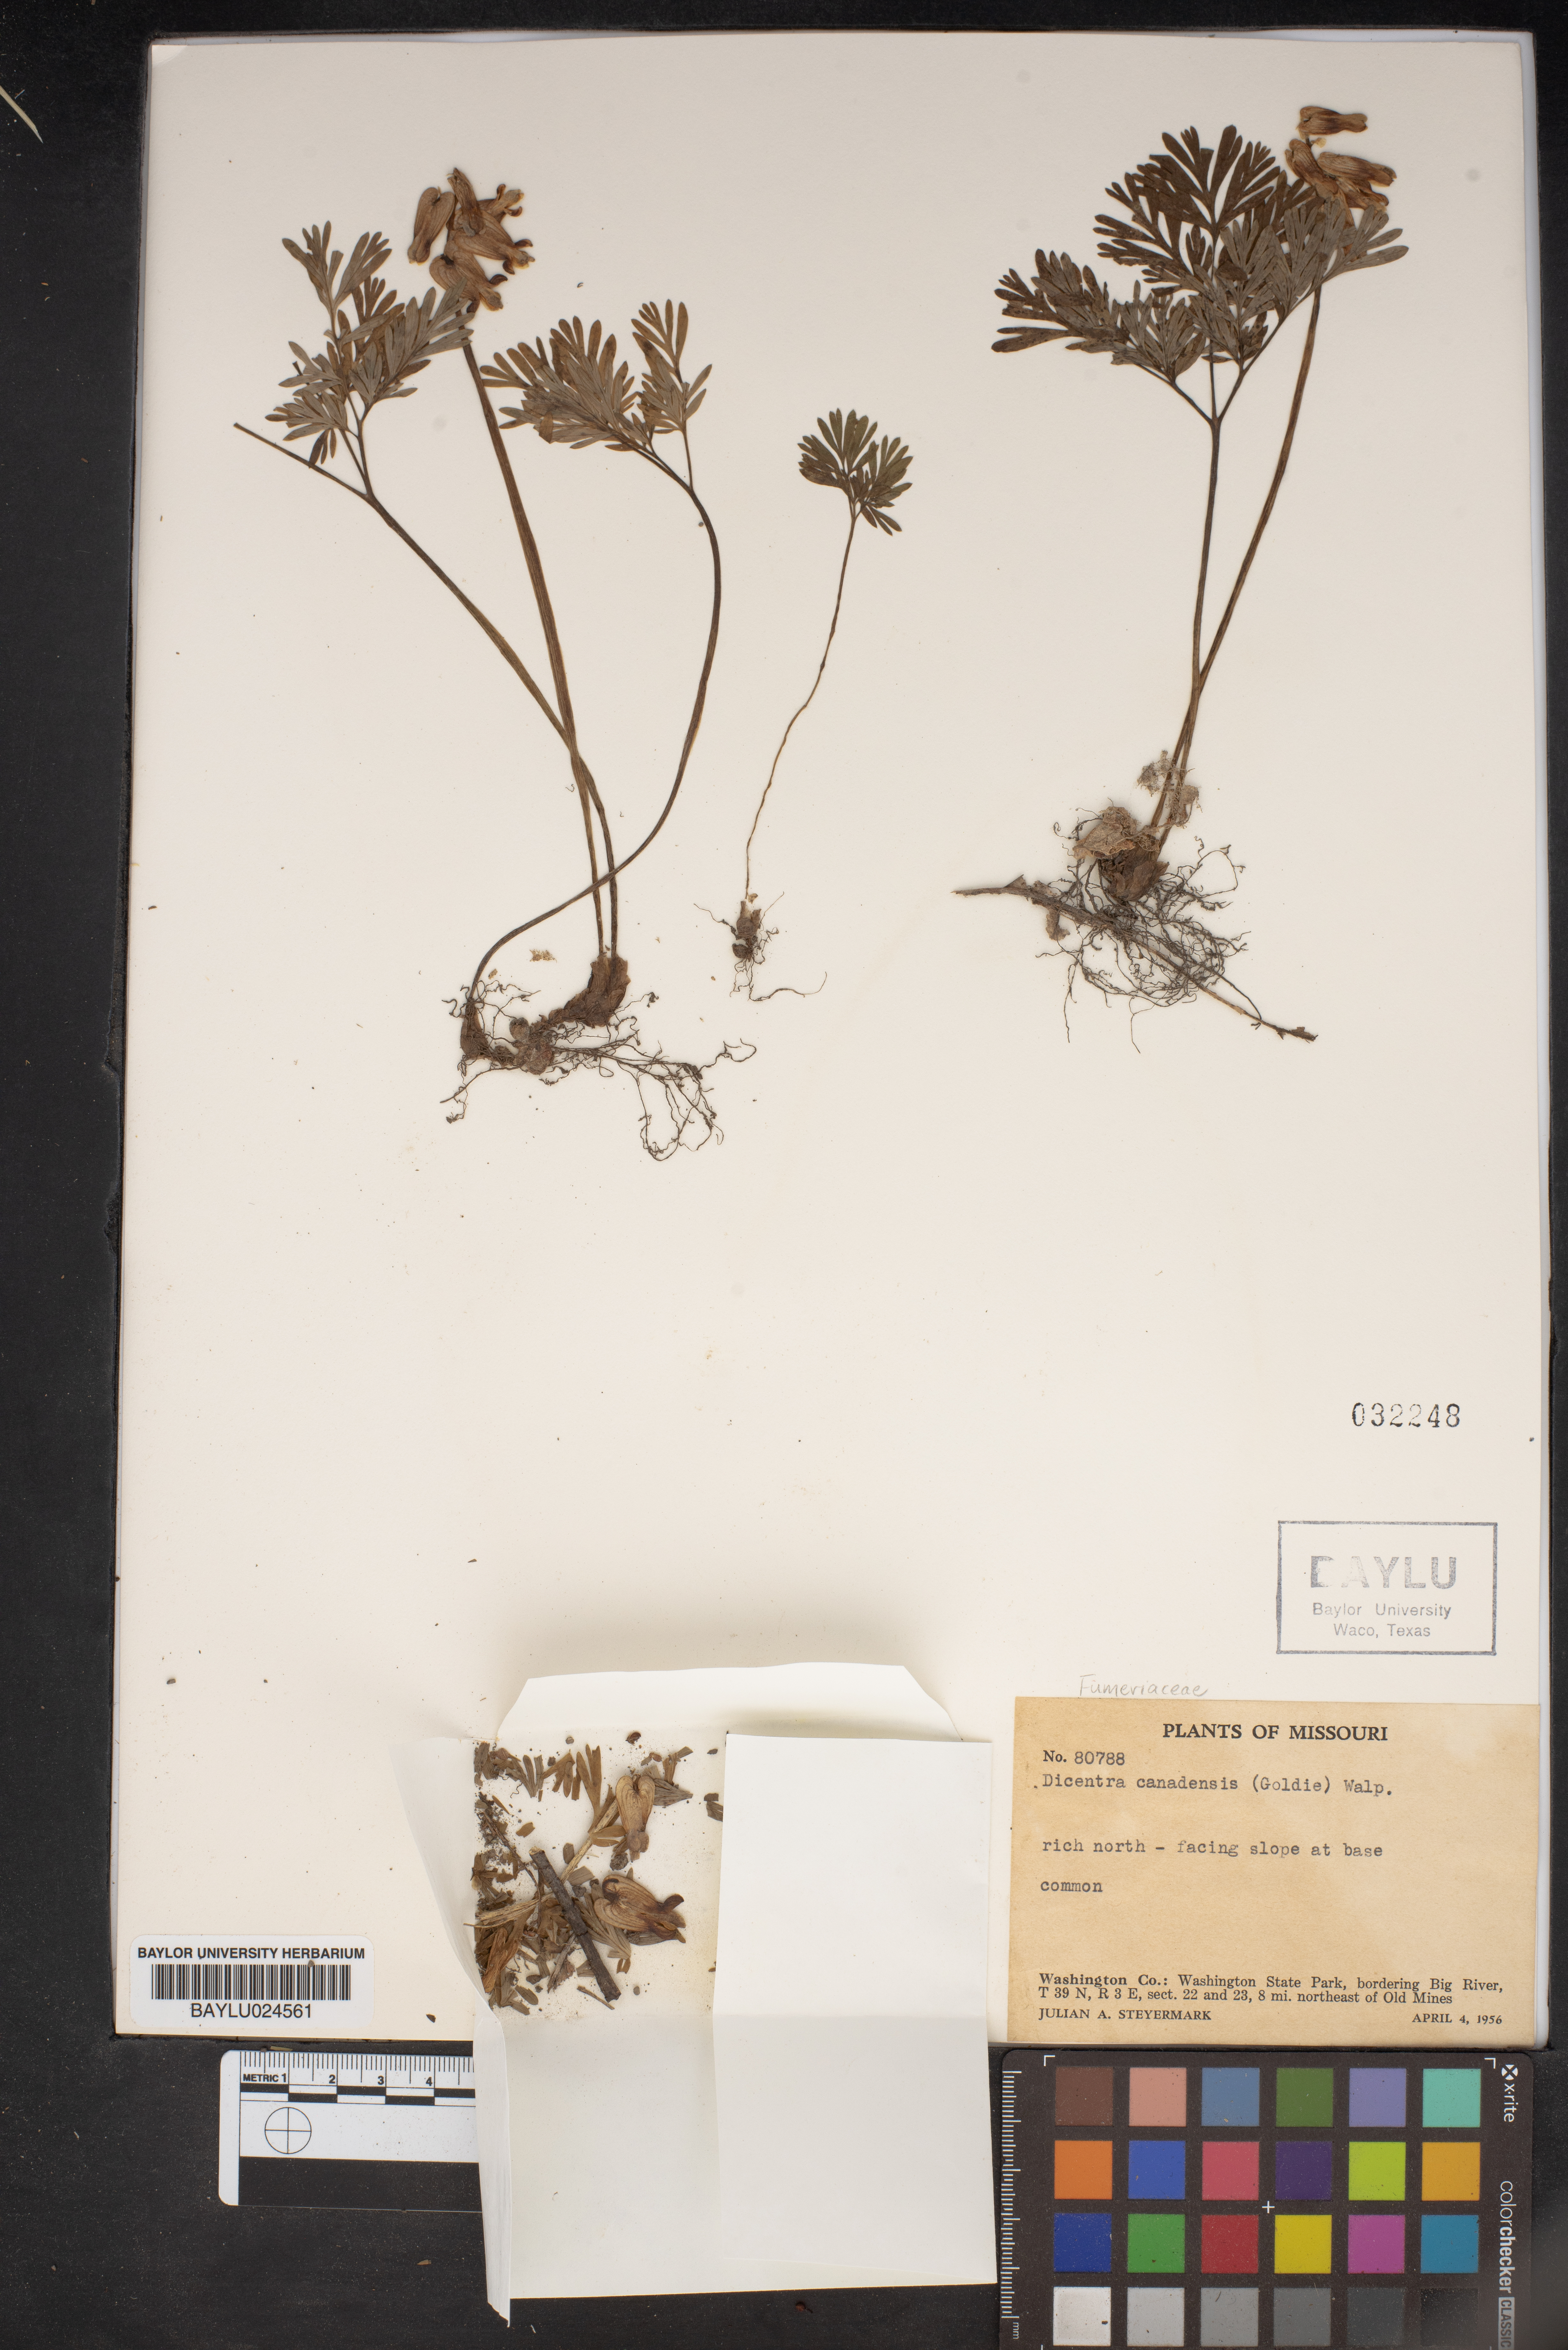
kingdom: Plantae
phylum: Tracheophyta
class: Magnoliopsida
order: Ranunculales
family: Papaveraceae
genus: Dicentra
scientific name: Dicentra canadensis
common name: Squirrel-corn
